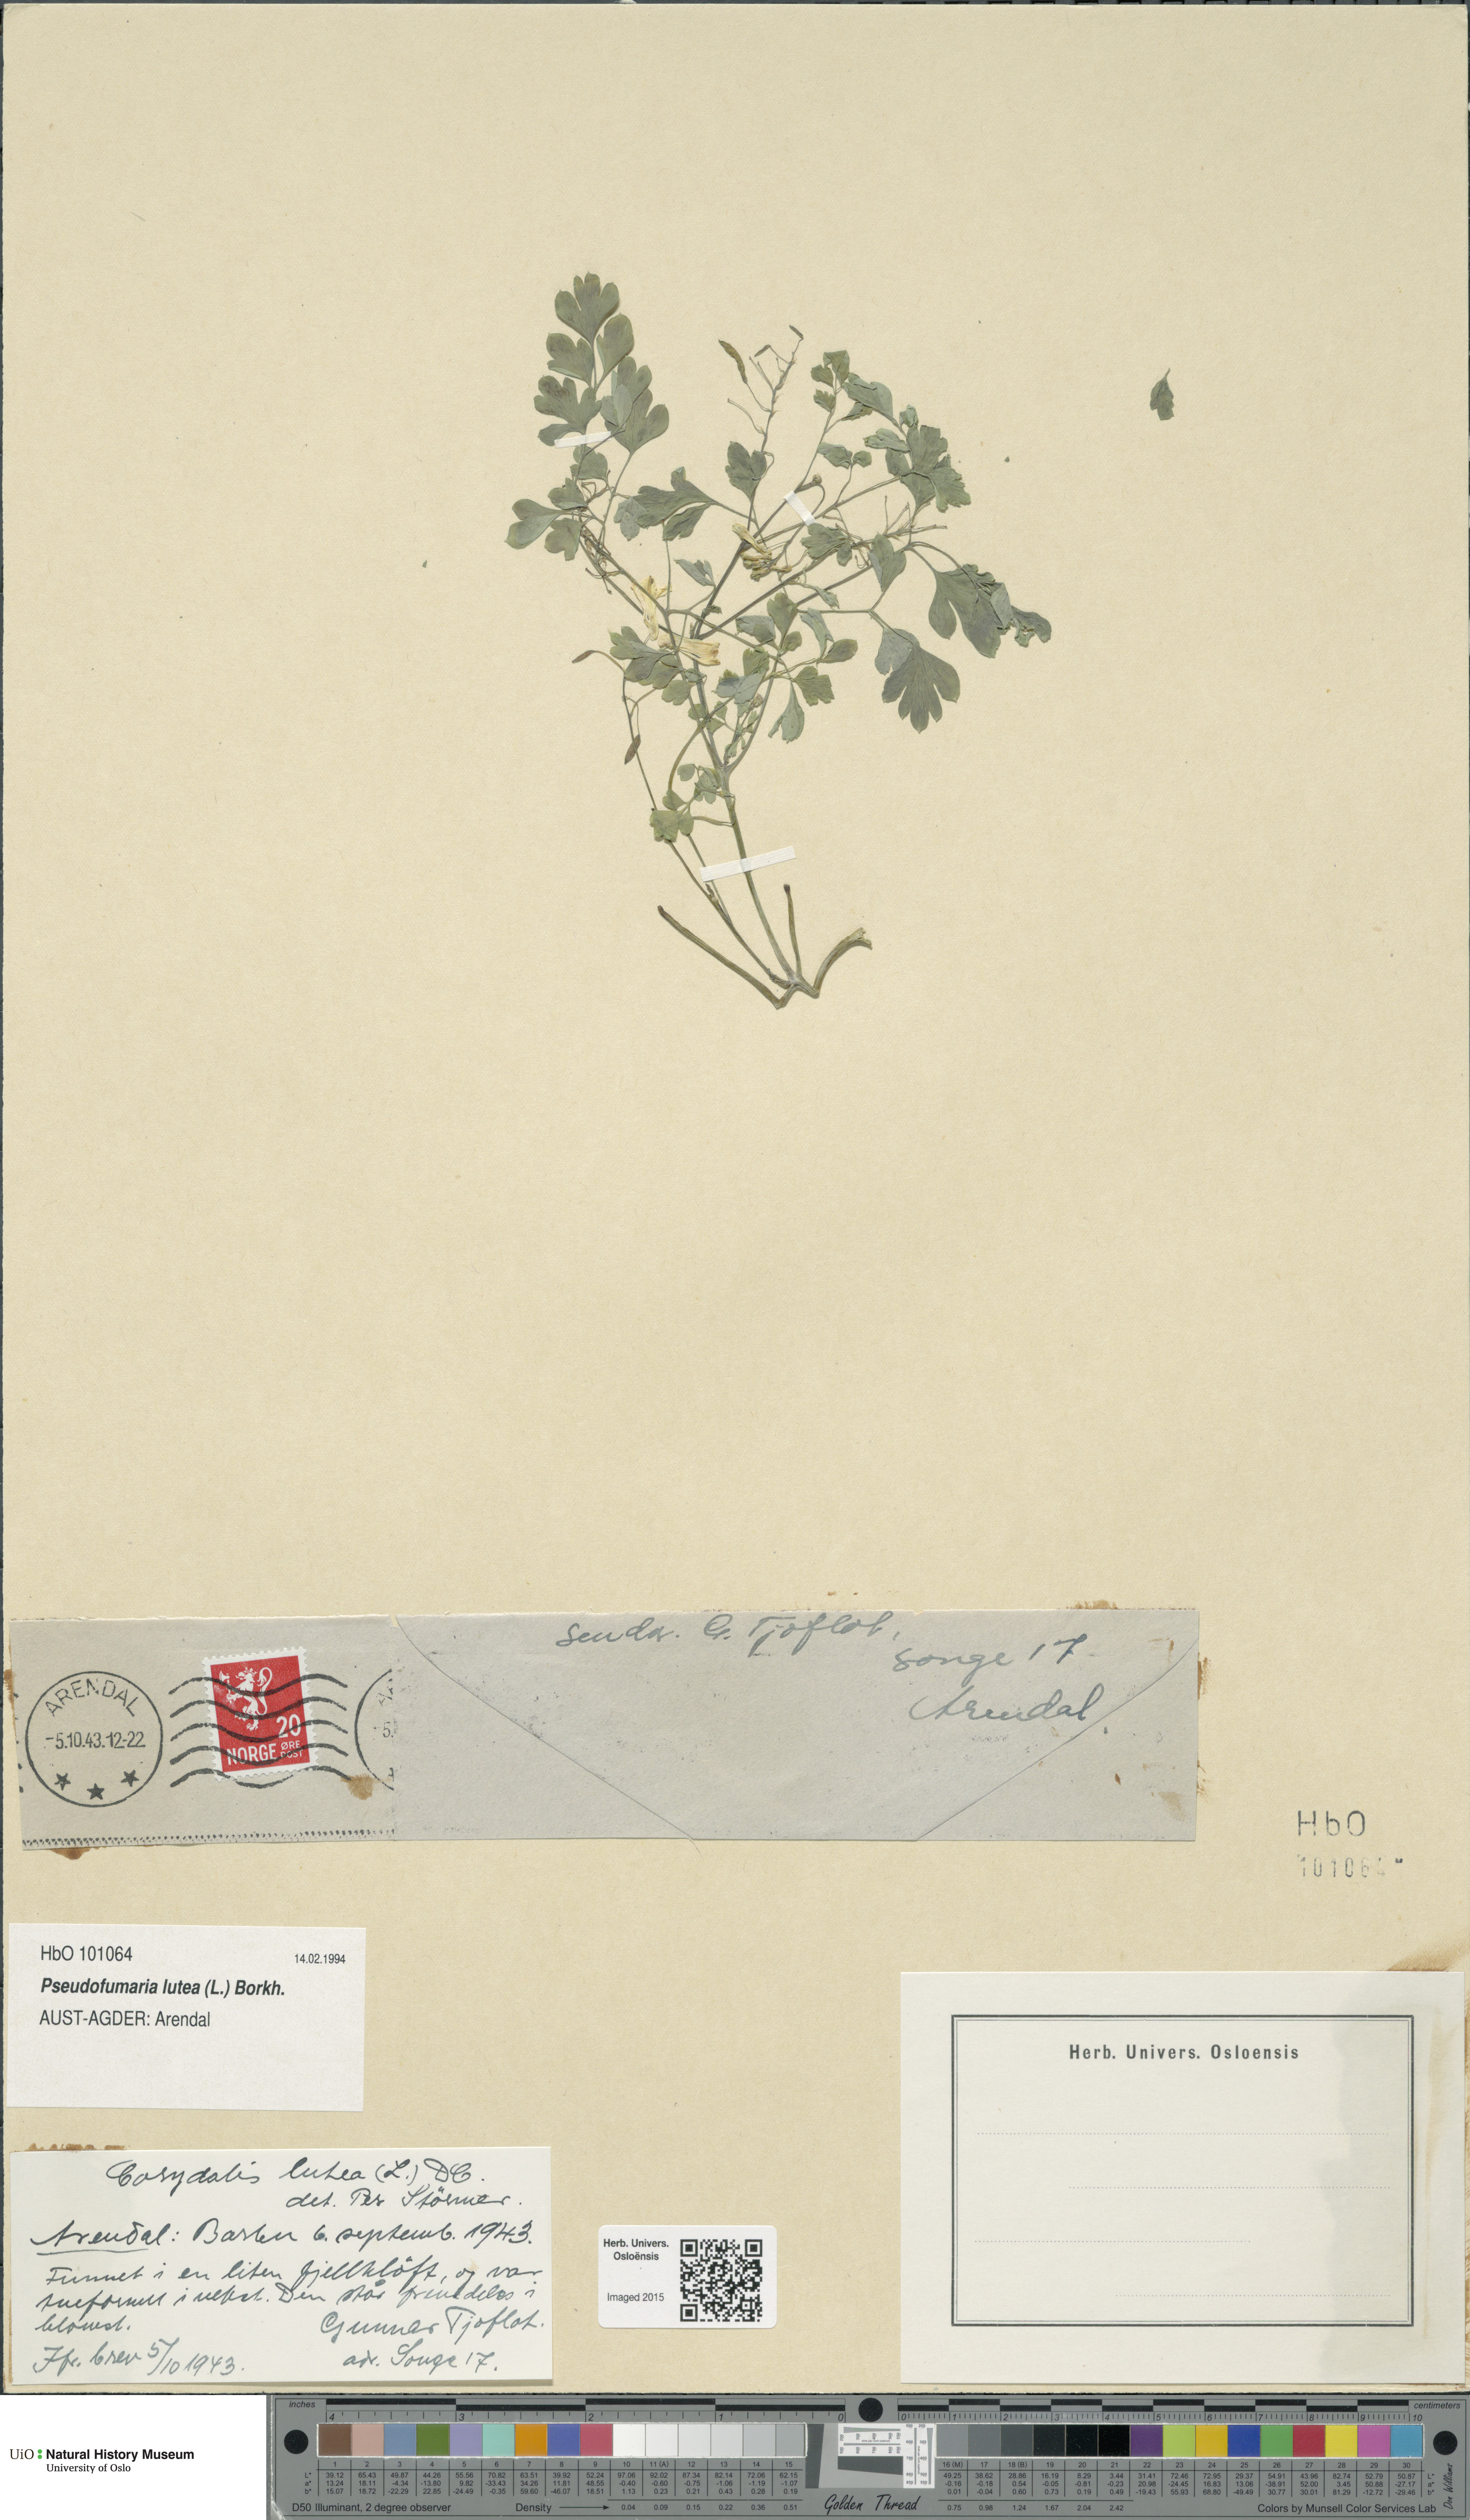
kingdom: Plantae
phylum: Tracheophyta
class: Magnoliopsida
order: Ranunculales
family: Papaveraceae
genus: Pseudofumaria
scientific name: Pseudofumaria lutea
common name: Yellow corydalis
